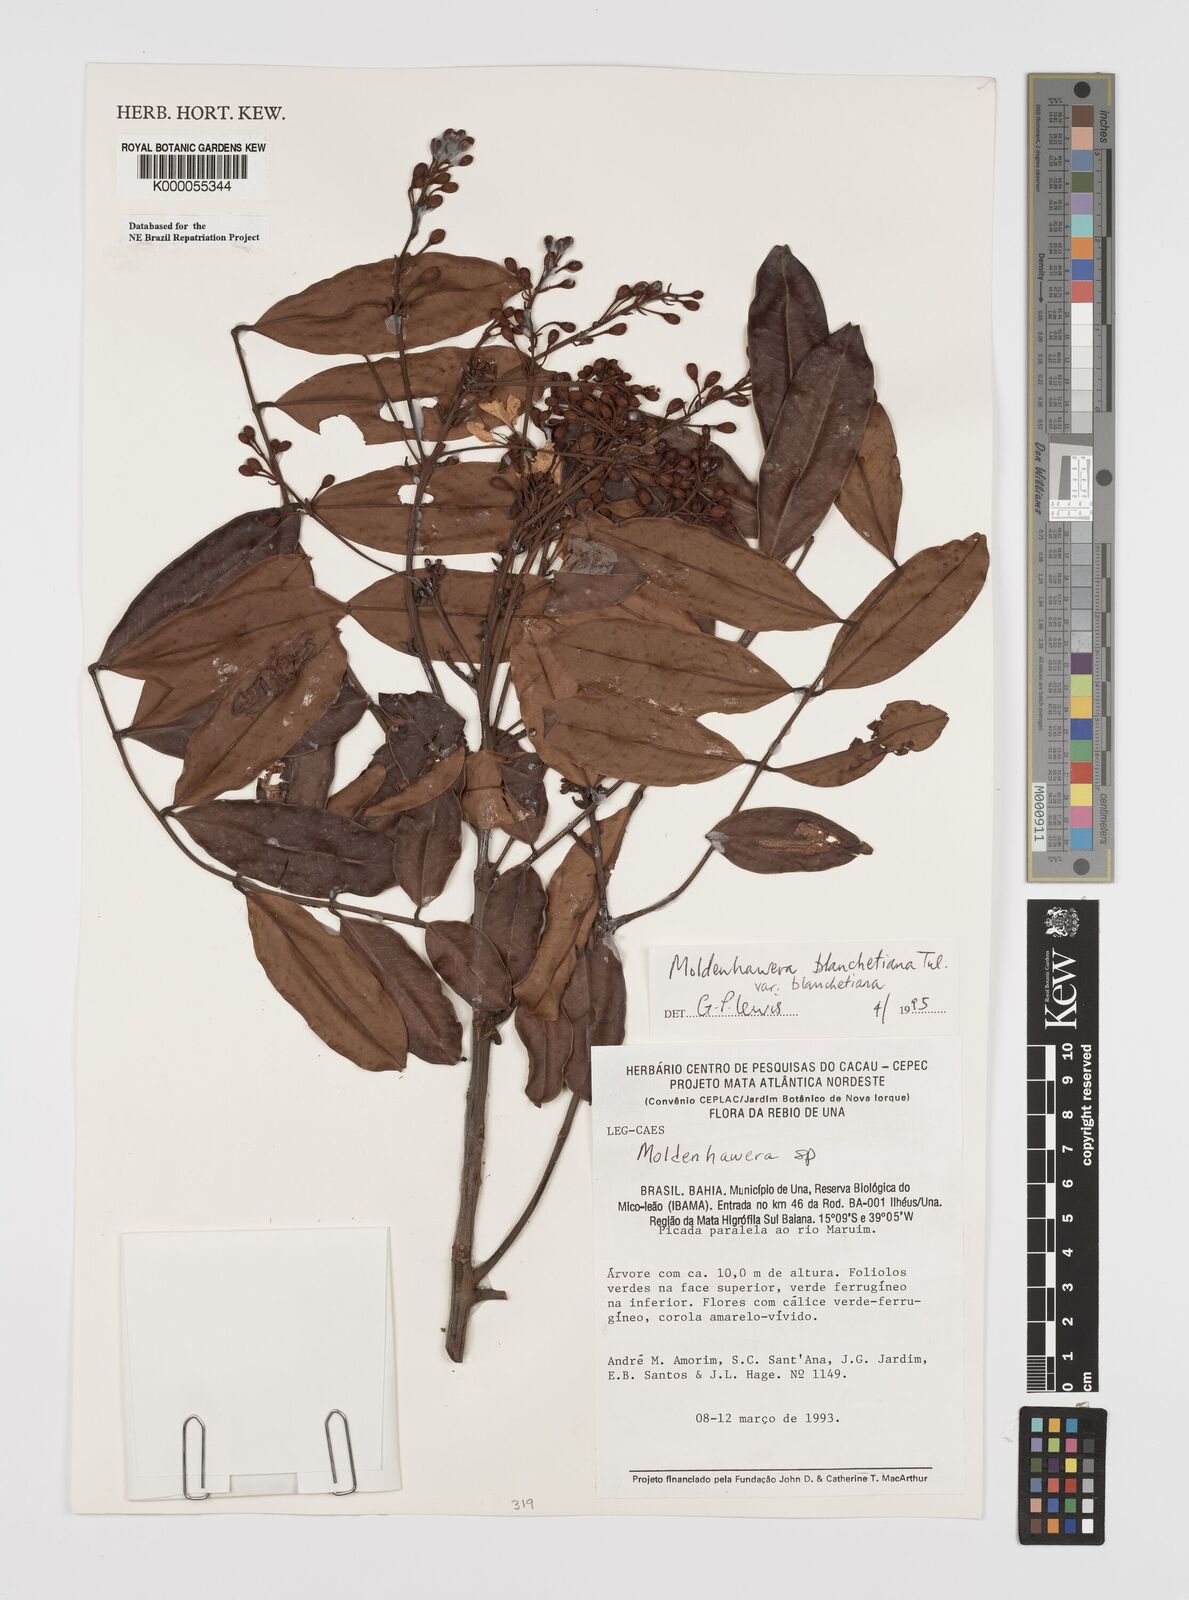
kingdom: Plantae
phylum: Tracheophyta
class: Magnoliopsida
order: Fabales
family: Fabaceae
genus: Moldenhawera
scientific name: Moldenhawera blanchetiana
